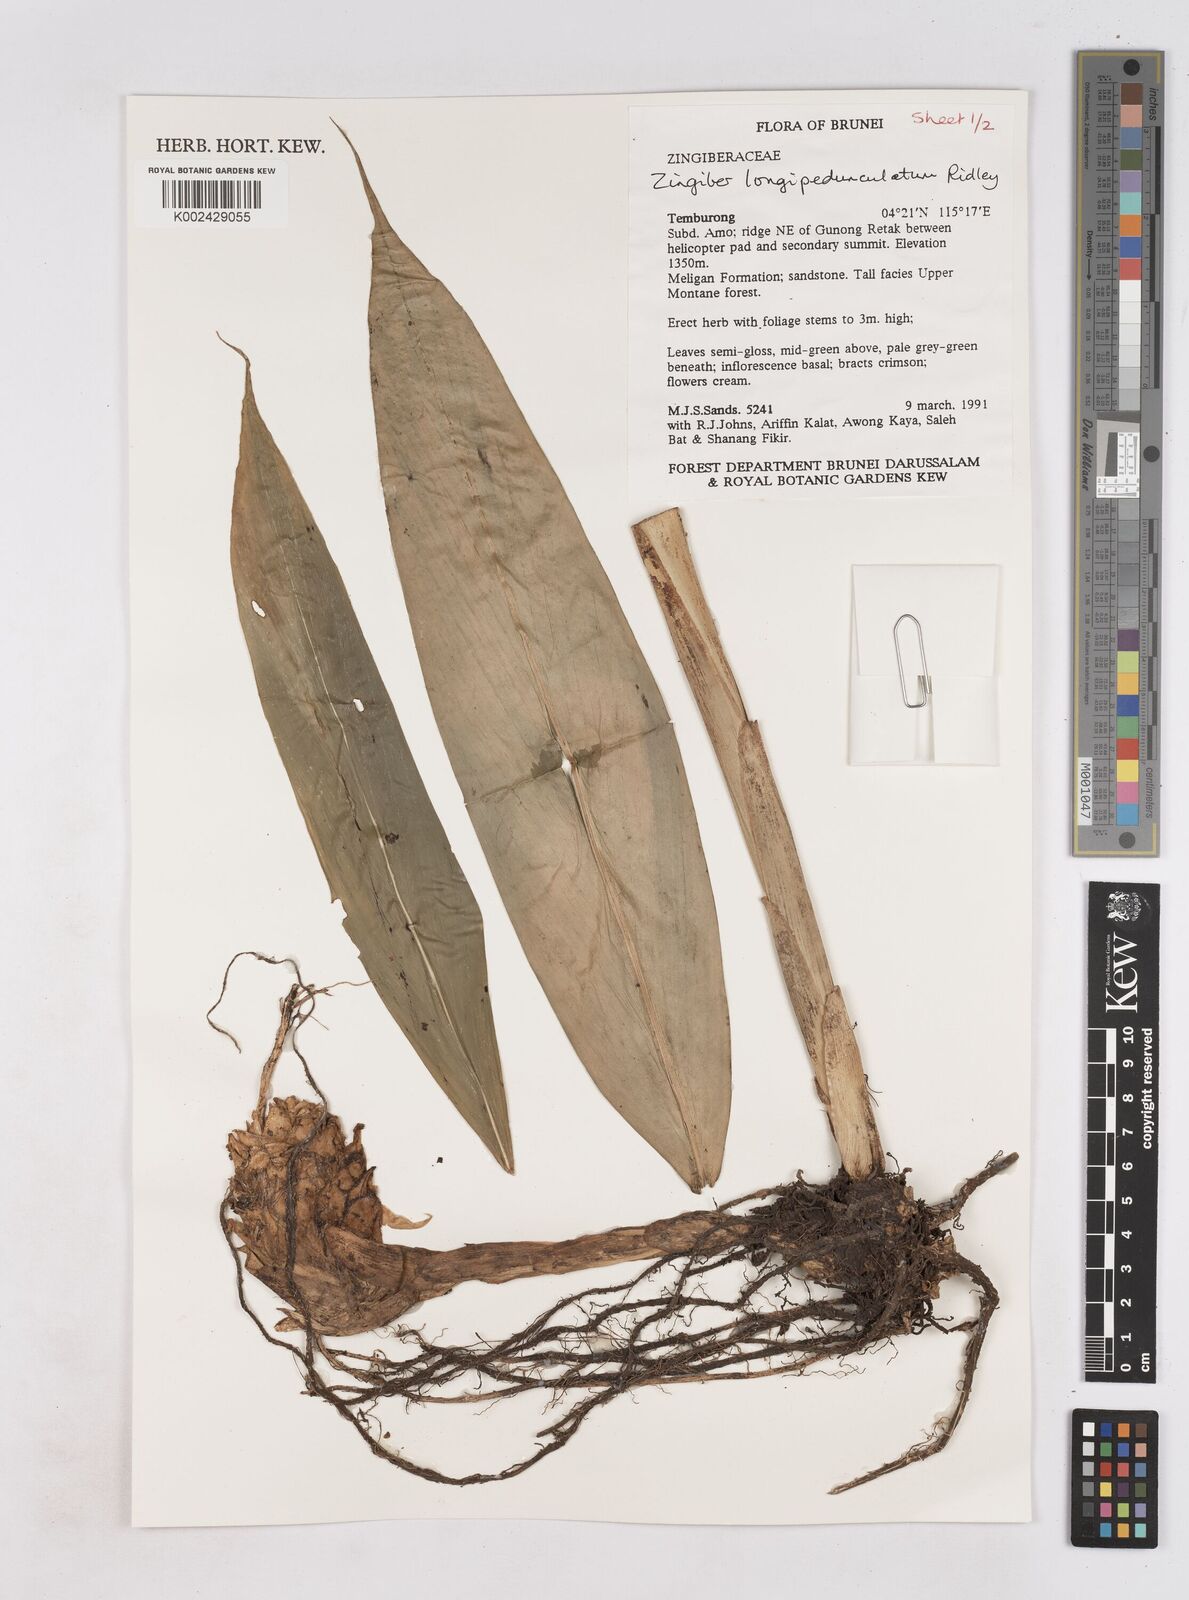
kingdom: Plantae
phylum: Tracheophyta
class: Liliopsida
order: Zingiberales
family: Zingiberaceae
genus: Zingiber
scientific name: Zingiber longipedunculatum
